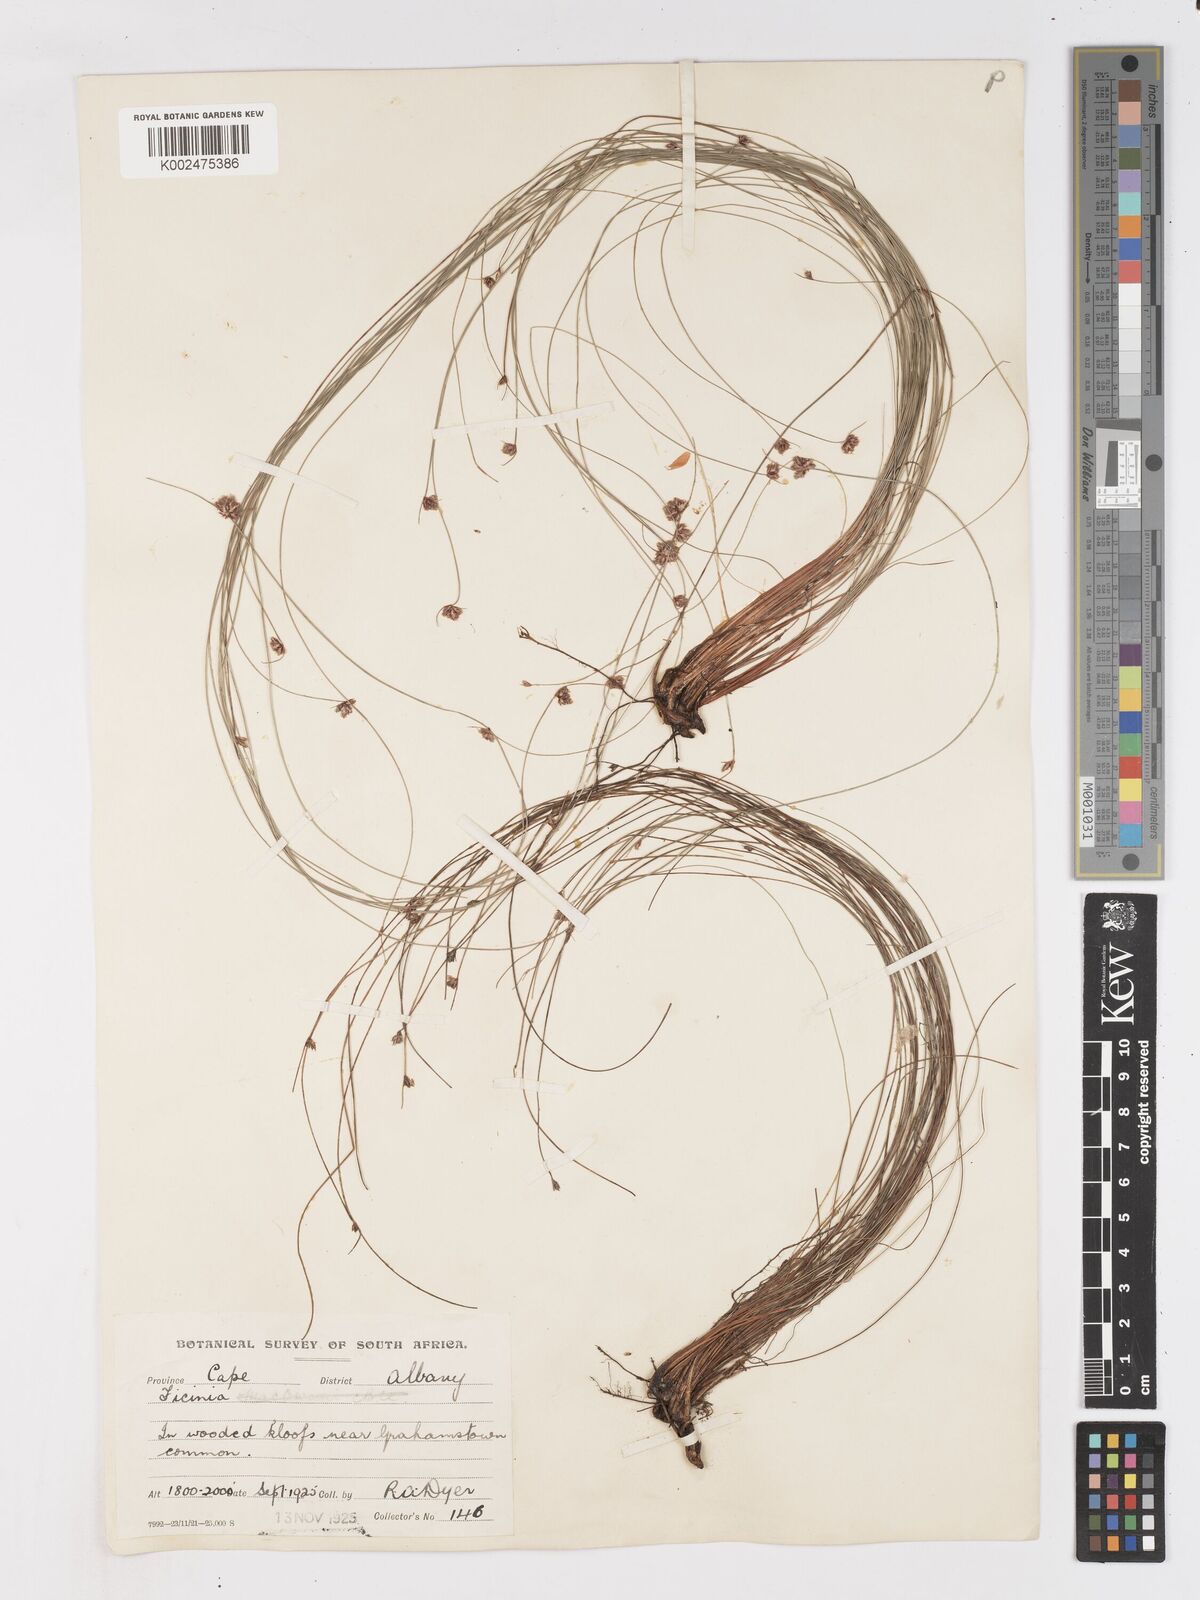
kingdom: Plantae
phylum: Tracheophyta
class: Liliopsida
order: Poales
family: Cyperaceae
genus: Ficinia
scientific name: Ficinia acuminata
